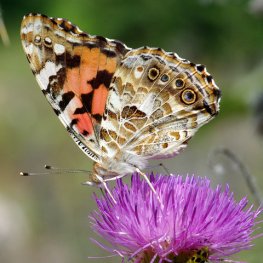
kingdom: Animalia
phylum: Arthropoda
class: Insecta
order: Lepidoptera
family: Nymphalidae
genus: Vanessa
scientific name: Vanessa cardui
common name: Painted Lady
